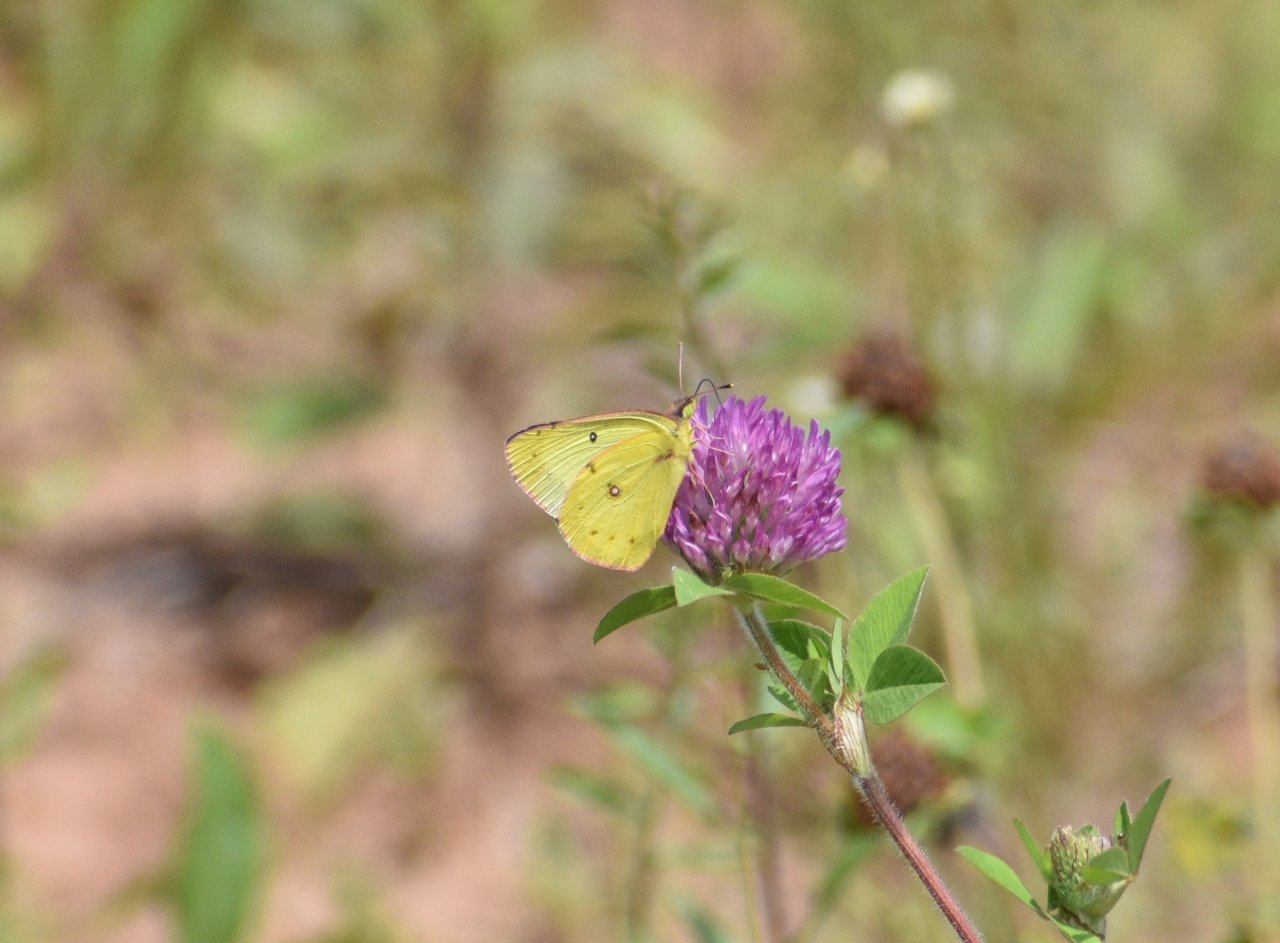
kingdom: Animalia
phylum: Arthropoda
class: Insecta
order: Lepidoptera
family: Pieridae
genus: Colias
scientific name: Colias philodice
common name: Clouded Sulphur
